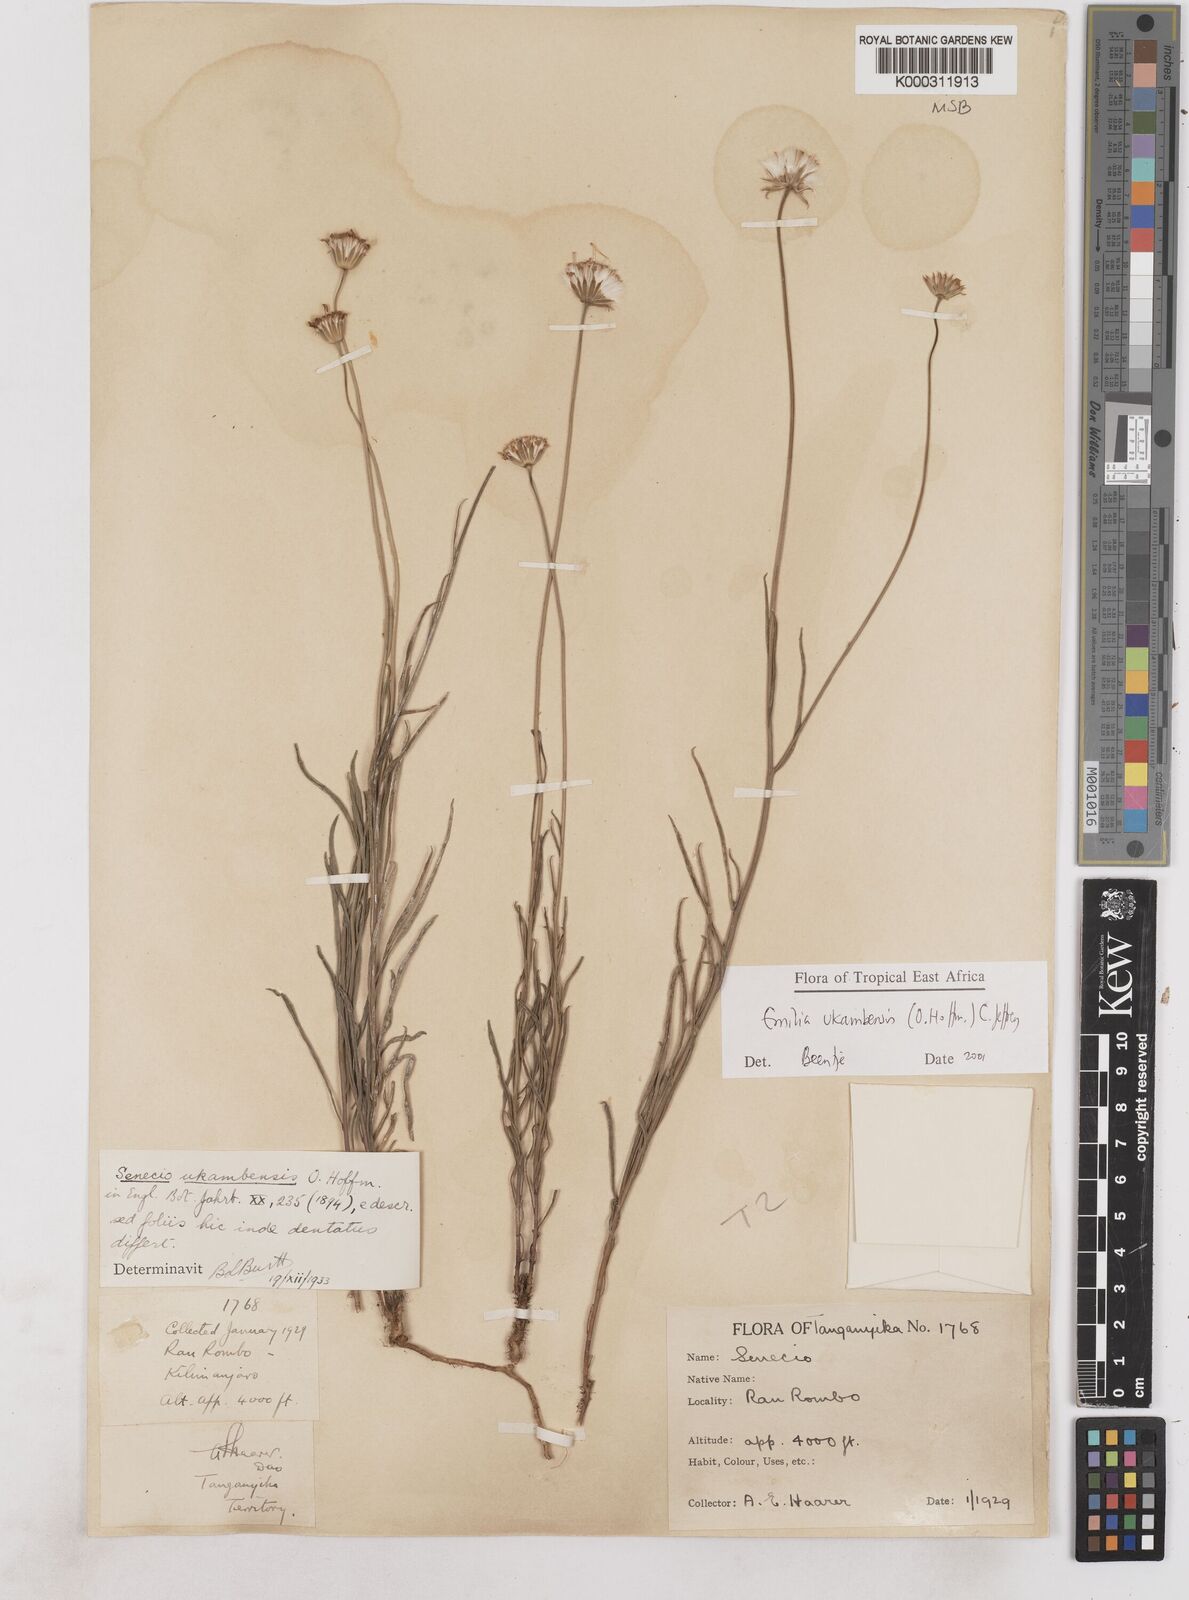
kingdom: Plantae
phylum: Tracheophyta
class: Magnoliopsida
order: Asterales
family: Asteraceae
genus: Emilia
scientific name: Emilia ukambensis
